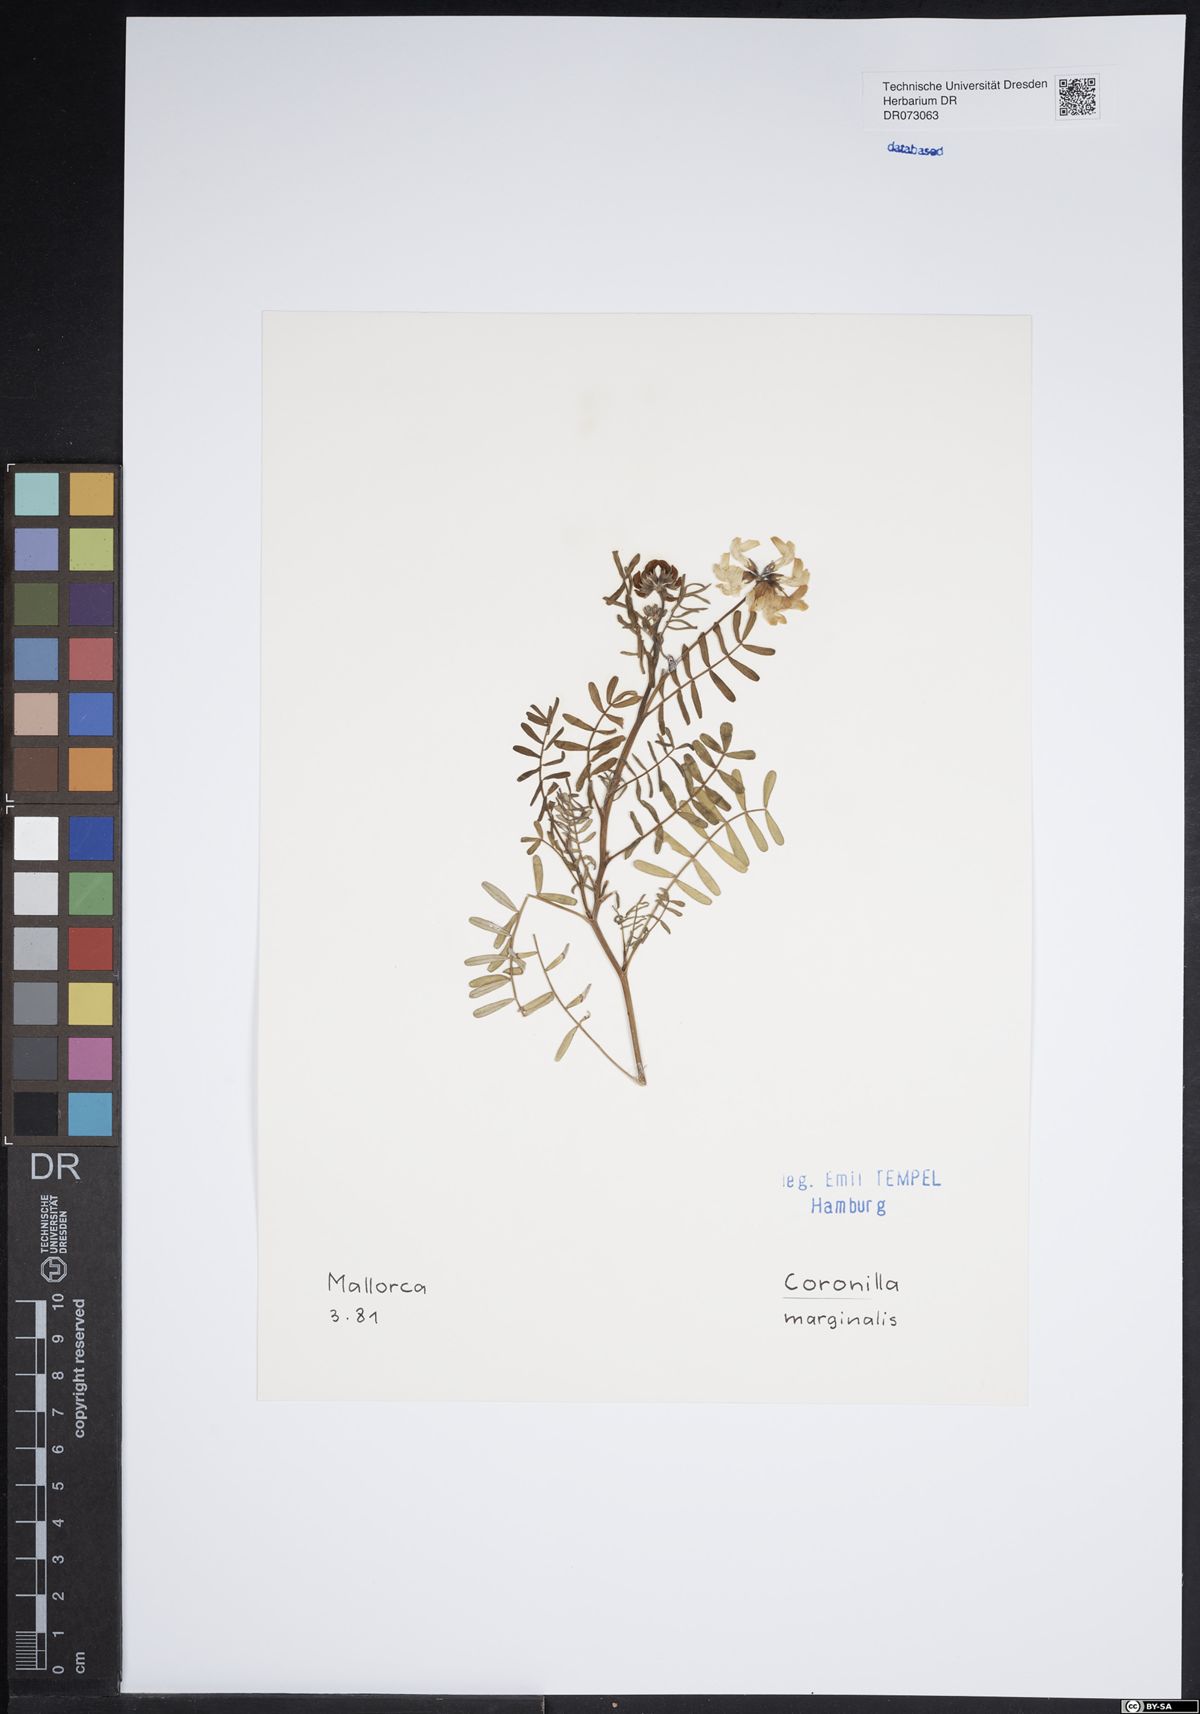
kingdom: Plantae
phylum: Tracheophyta
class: Magnoliopsida
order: Fabales
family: Fabaceae
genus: Coronilla
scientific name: Coronilla vaginalis
